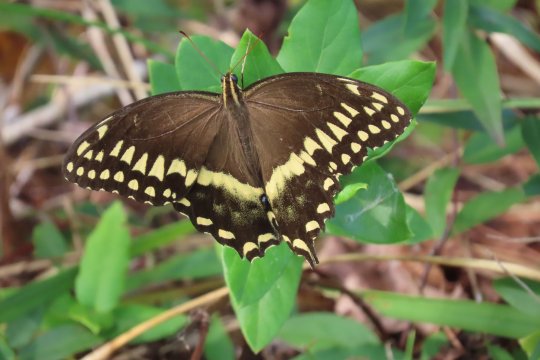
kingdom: Animalia
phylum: Arthropoda
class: Insecta
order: Lepidoptera
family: Papilionidae
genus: Pterourus
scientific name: Pterourus palamedes
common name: Palamedes Swallowtail
